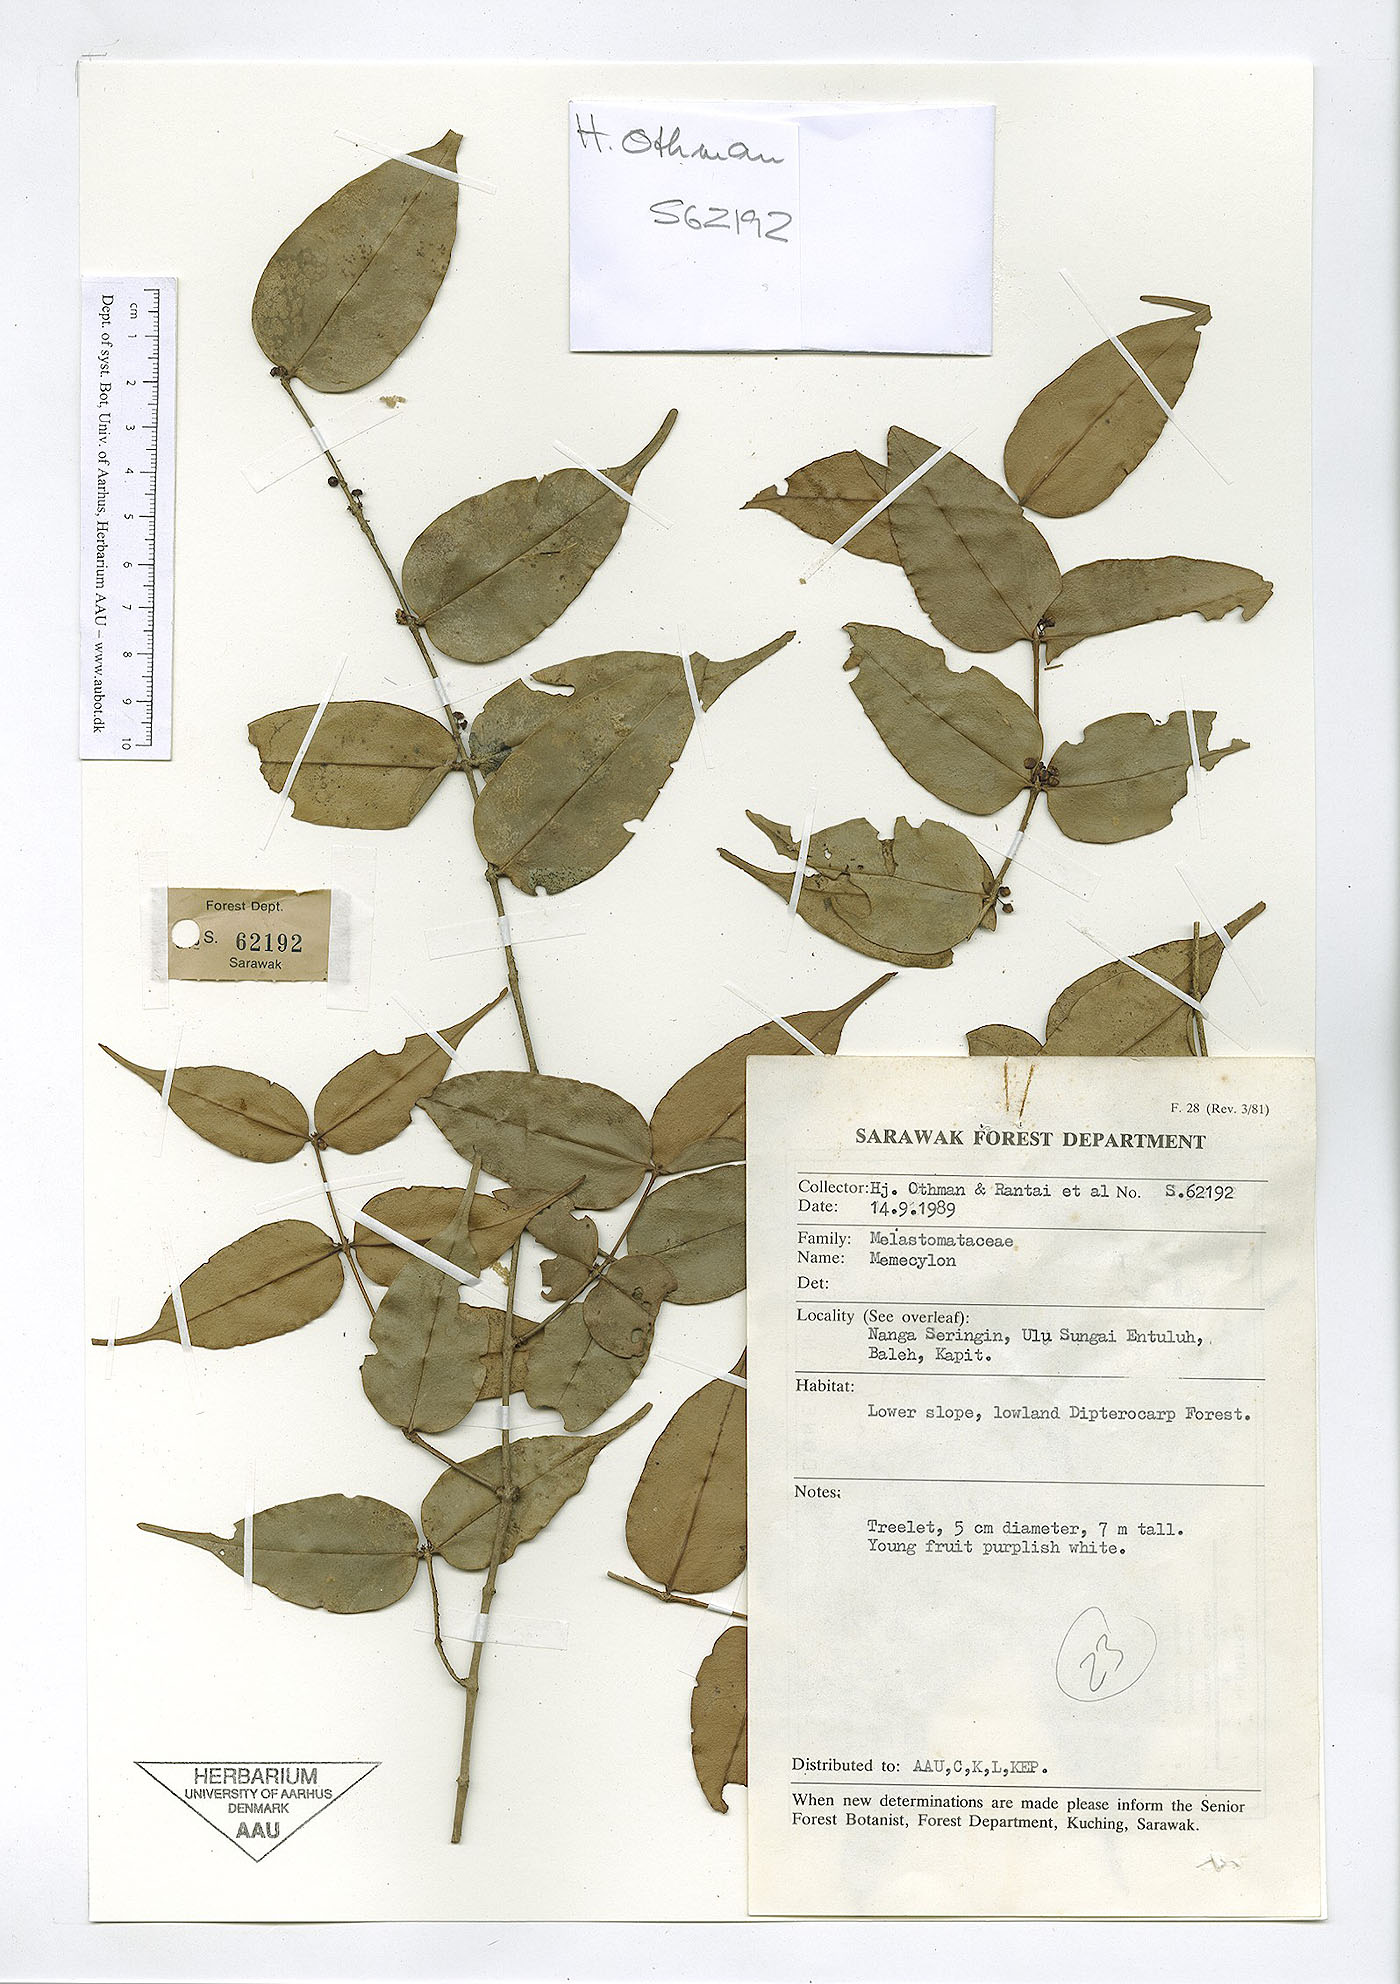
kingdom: Plantae
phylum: Tracheophyta
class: Magnoliopsida
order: Myrtales
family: Melastomataceae
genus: Memecylon
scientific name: Memecylon
